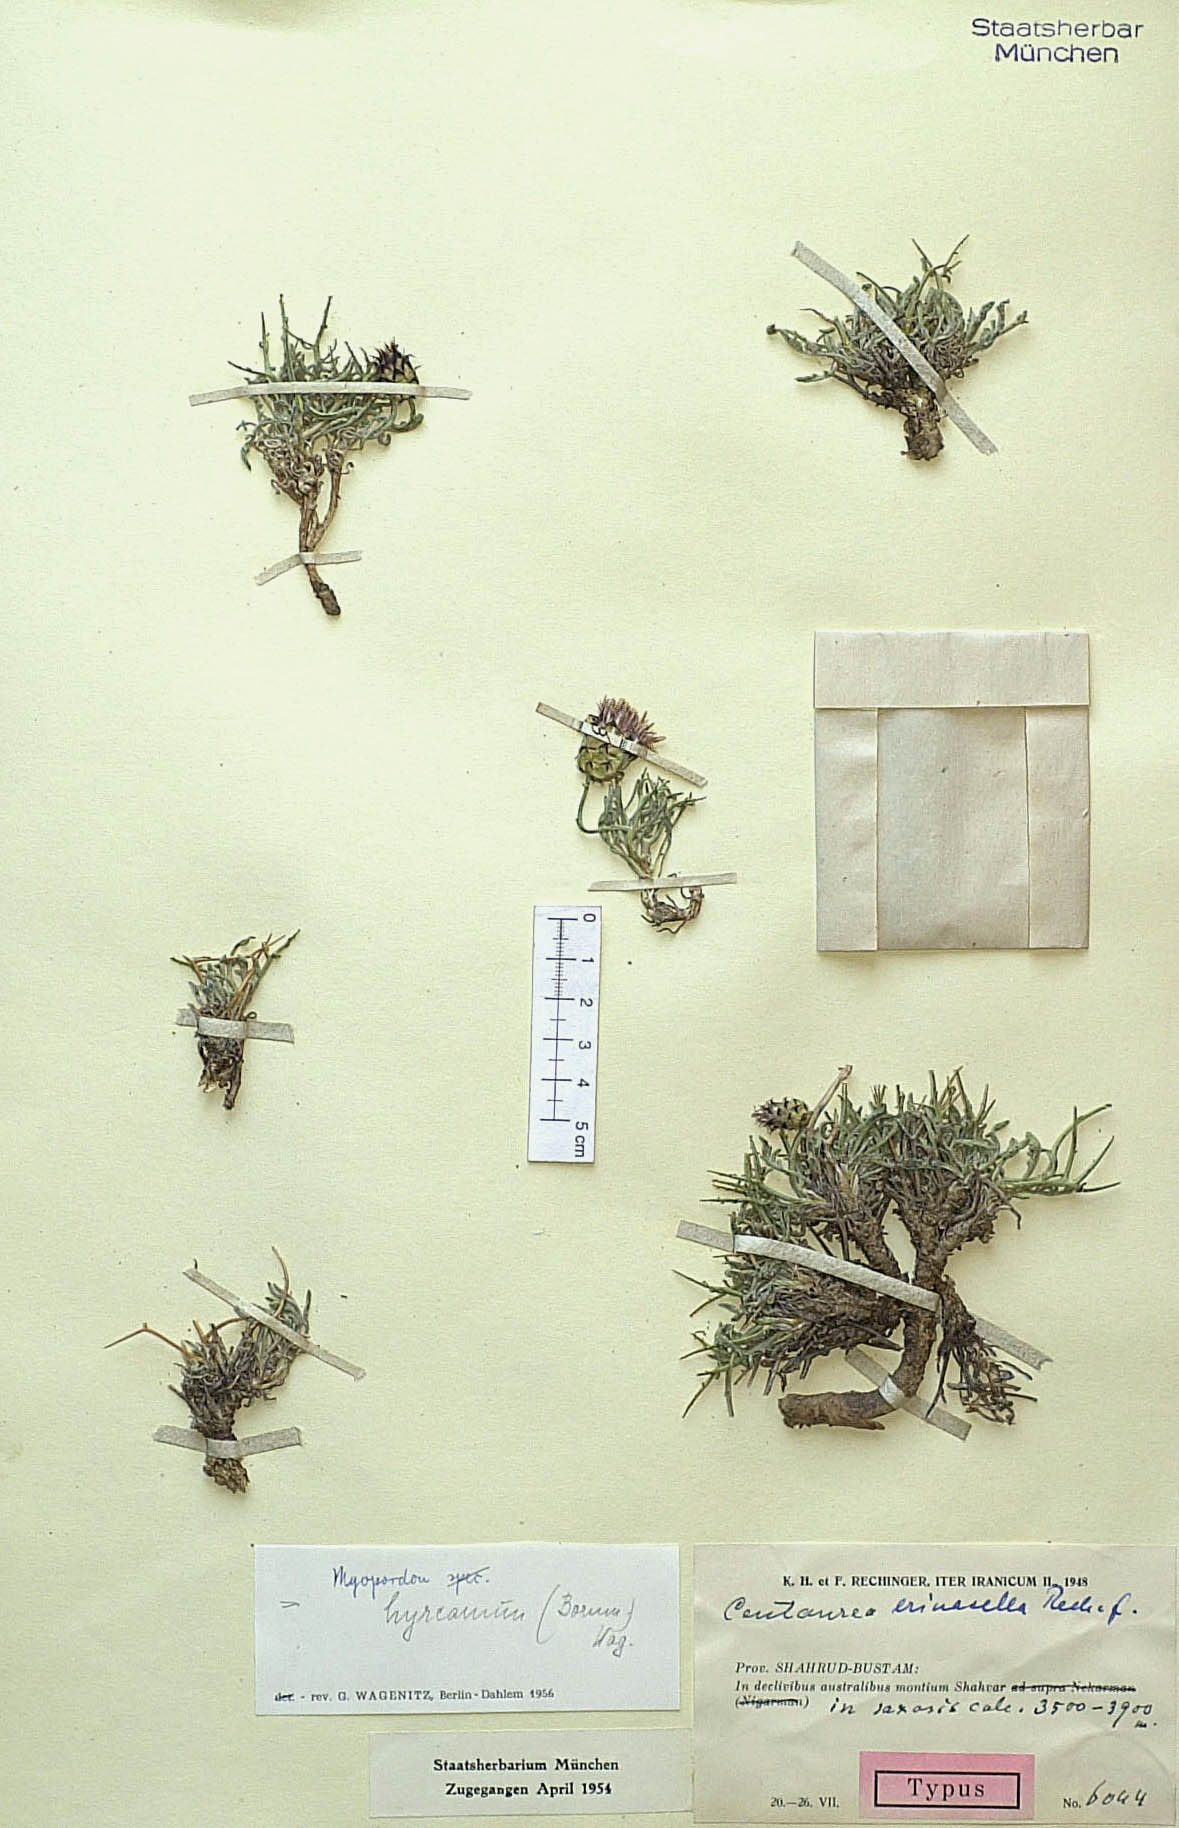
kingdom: Plantae
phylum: Tracheophyta
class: Magnoliopsida
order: Asterales
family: Asteraceae
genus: Myopordon
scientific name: Myopordon hyrcanum
